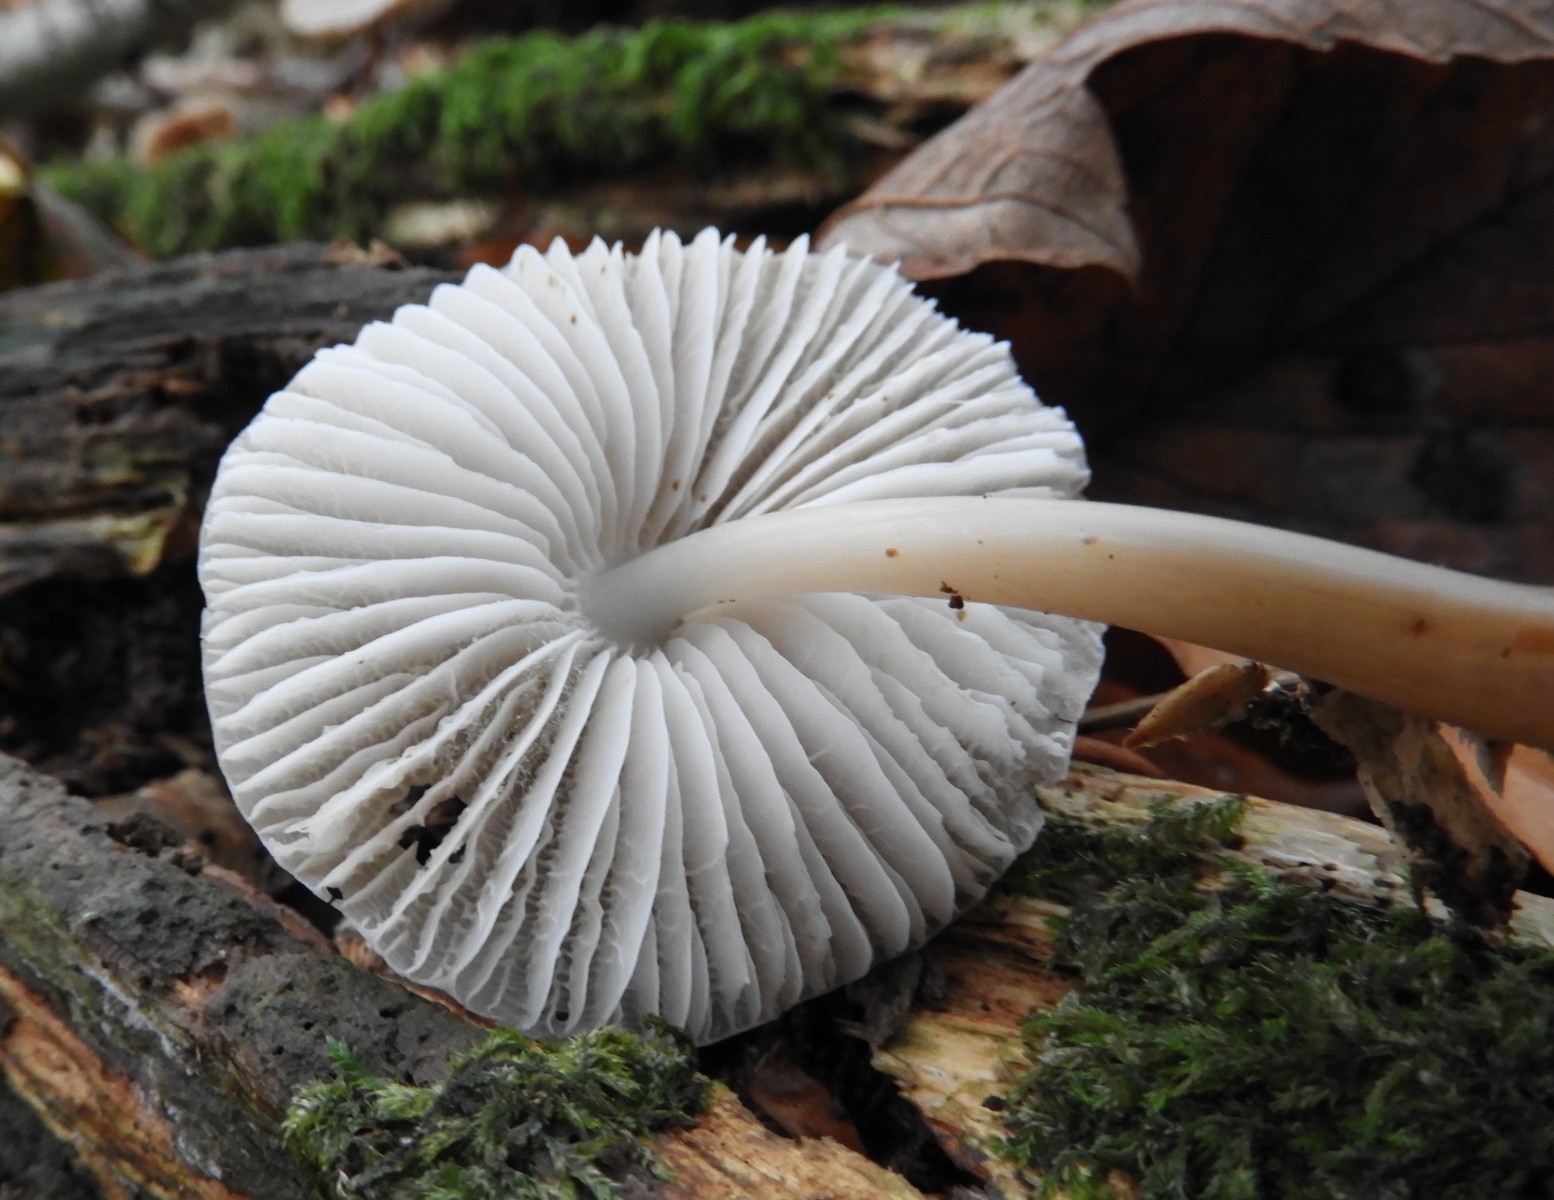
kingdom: Fungi
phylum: Basidiomycota
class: Agaricomycetes
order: Agaricales
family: Mycenaceae
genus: Mycena
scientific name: Mycena galericulata
